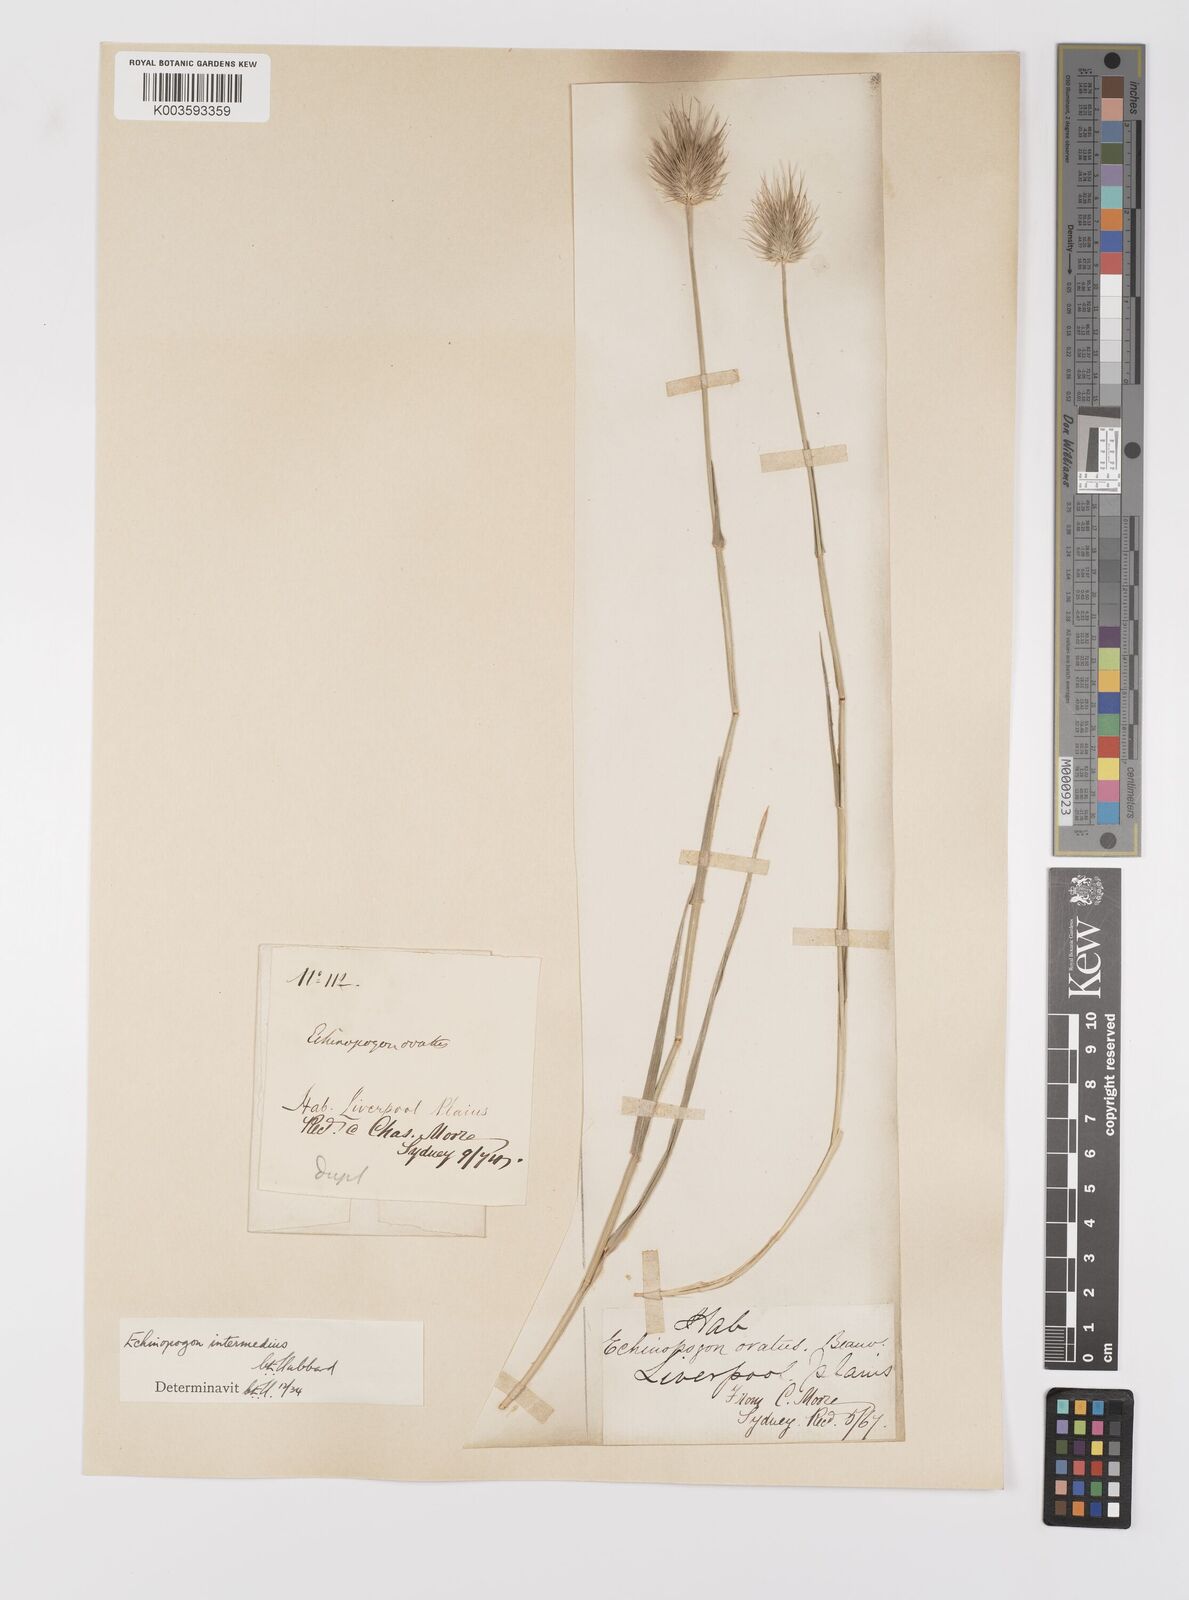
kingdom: Plantae
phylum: Tracheophyta
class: Liliopsida
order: Poales
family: Poaceae
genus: Echinopogon
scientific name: Echinopogon intermedius
